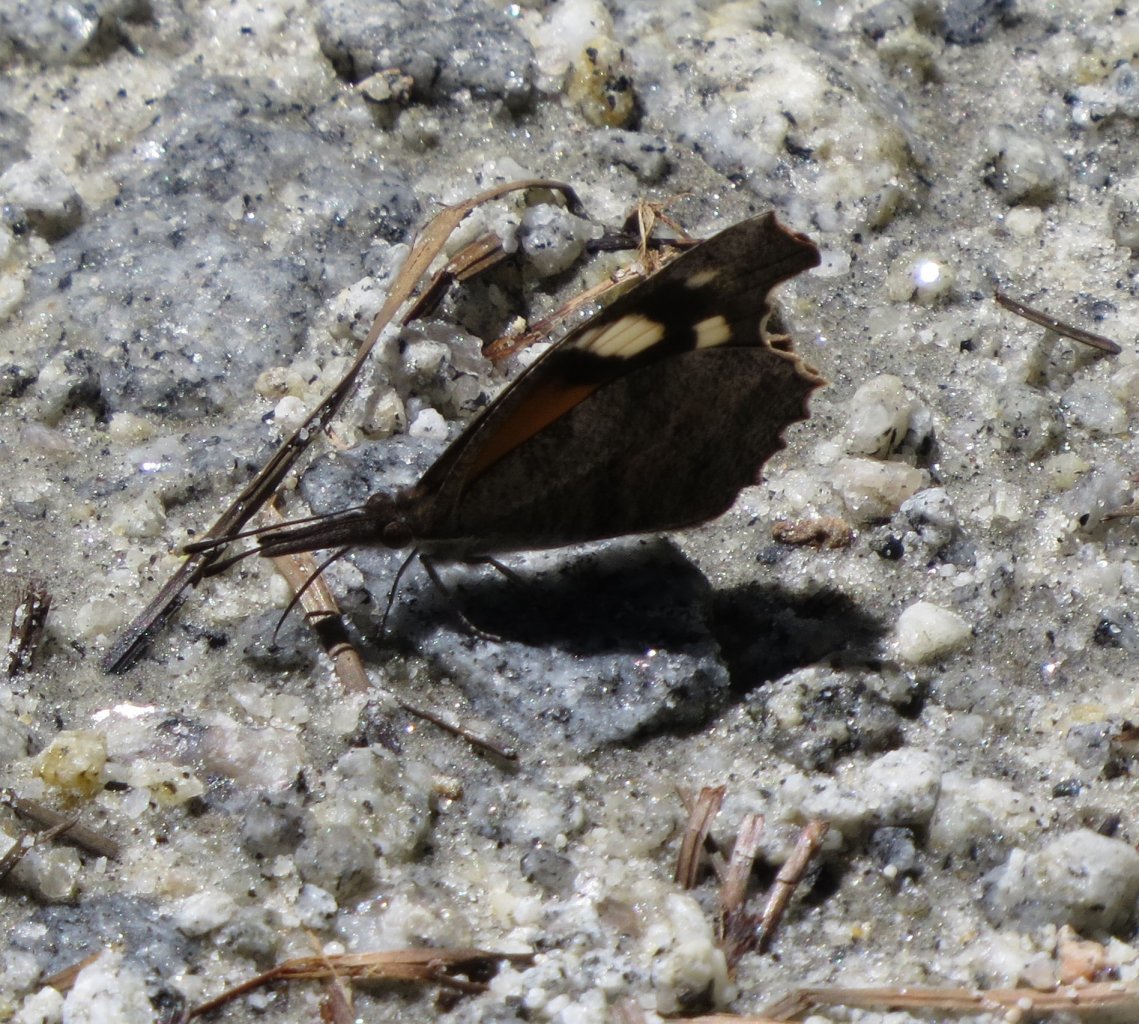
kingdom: Animalia
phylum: Arthropoda
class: Insecta
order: Lepidoptera
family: Nymphalidae
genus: Libytheana
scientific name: Libytheana carinenta
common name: American Snout
